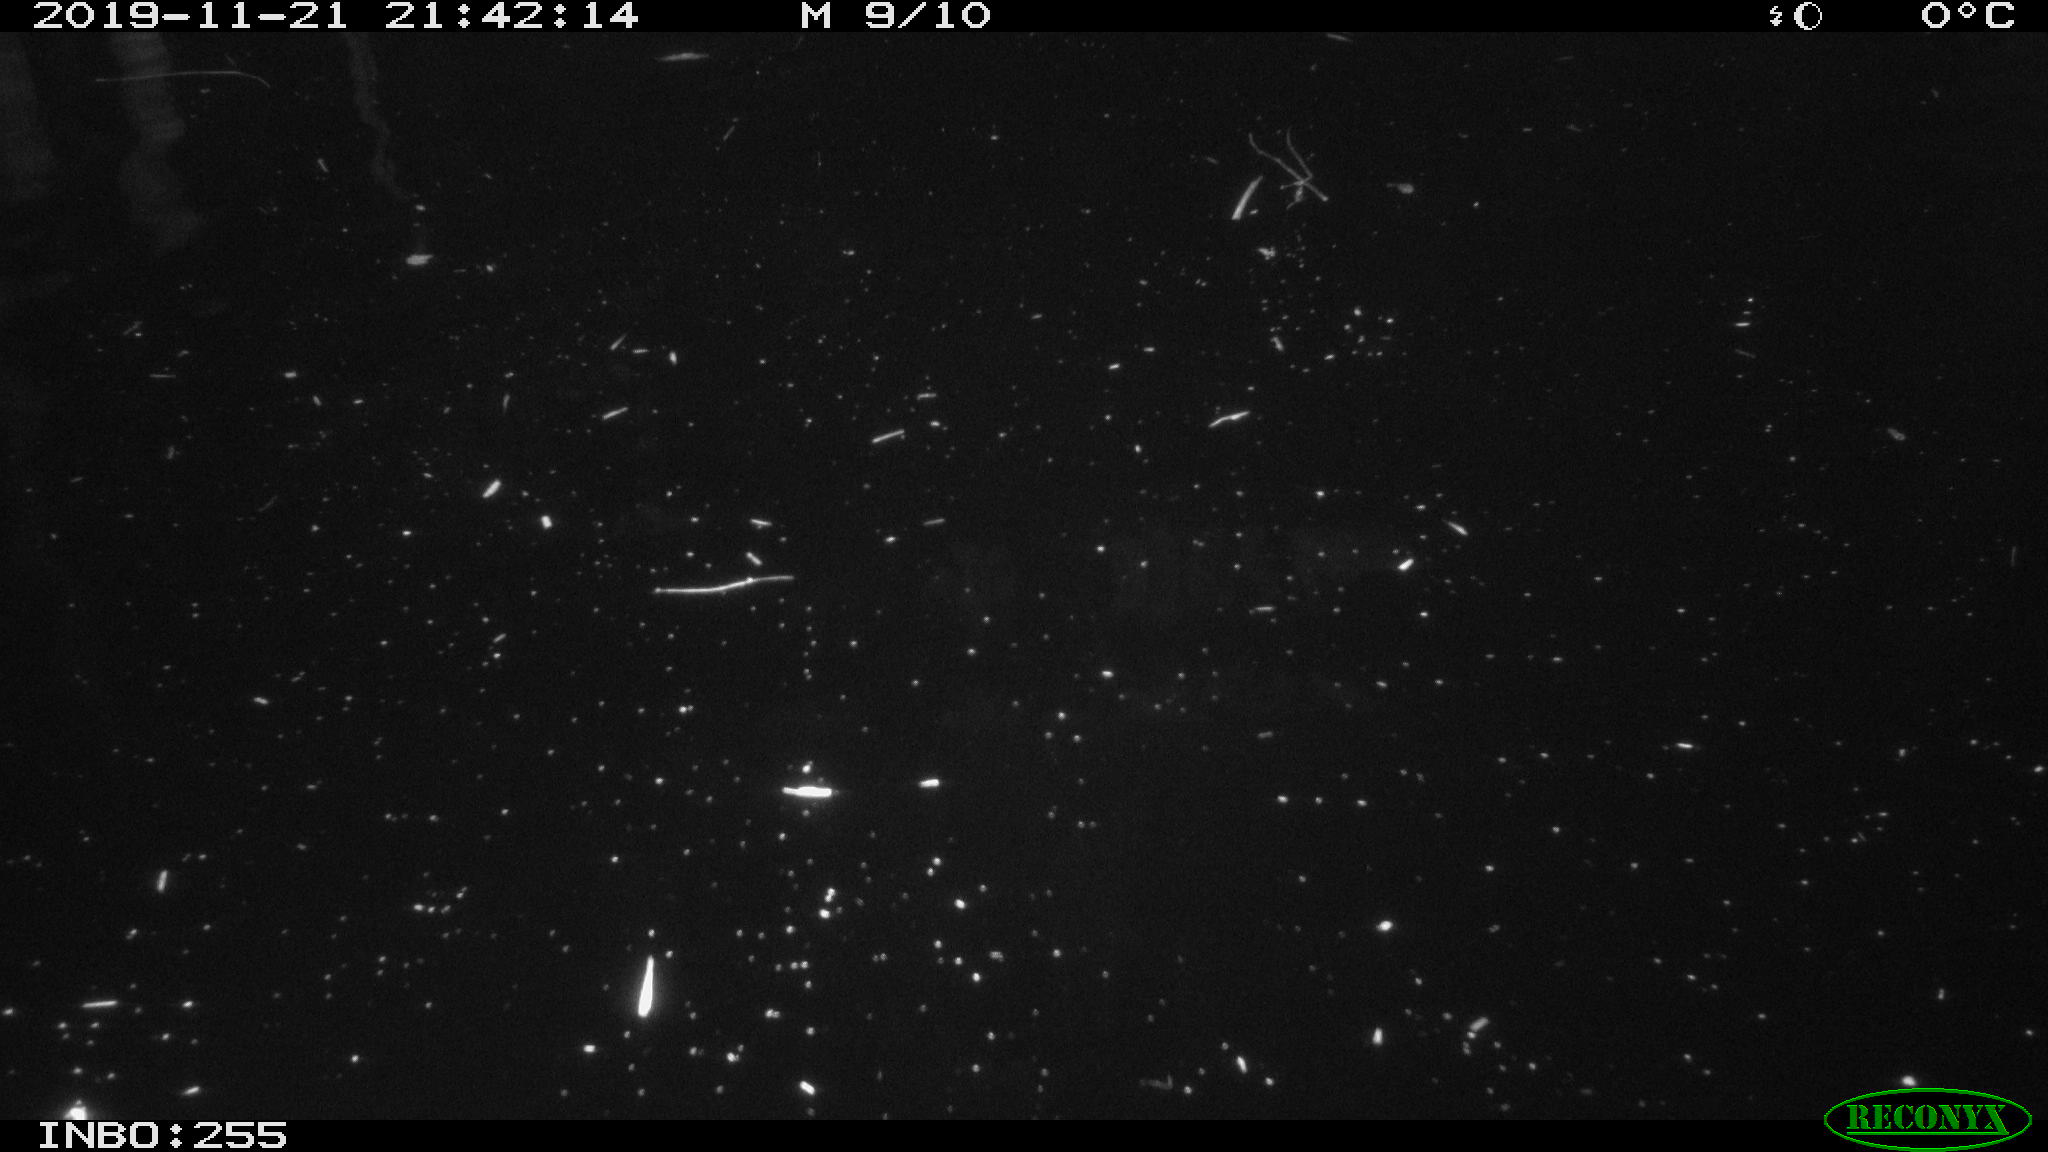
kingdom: Animalia
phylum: Chordata
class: Aves
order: Anseriformes
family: Anatidae
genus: Anas
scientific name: Anas platyrhynchos
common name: Mallard
